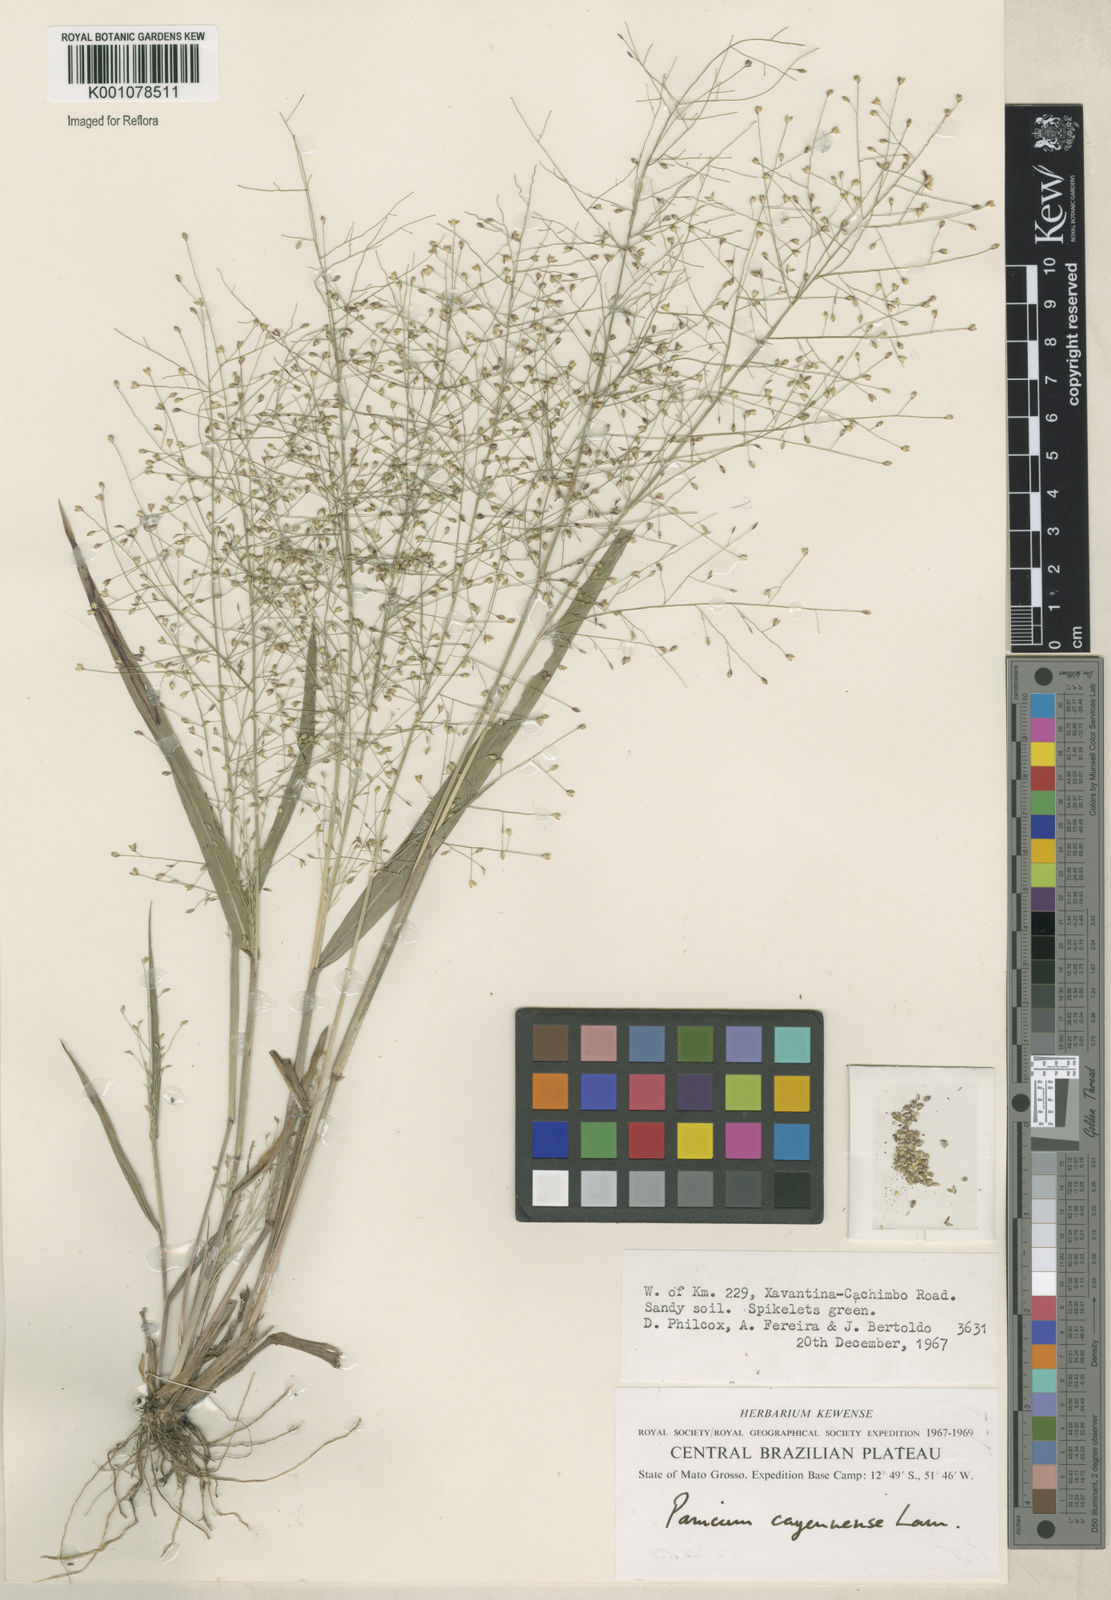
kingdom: Plantae
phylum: Tracheophyta
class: Liliopsida
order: Poales
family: Poaceae
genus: Panicum
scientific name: Panicum campestre
